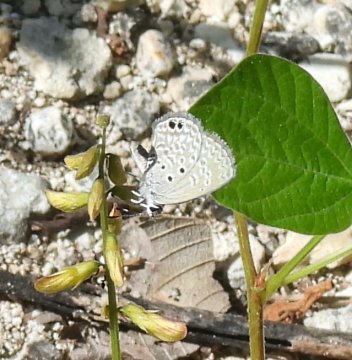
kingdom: Animalia
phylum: Arthropoda
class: Insecta
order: Lepidoptera
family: Lycaenidae
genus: Hemiargus
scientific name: Hemiargus ceraunus
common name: Ceraunus Blue
